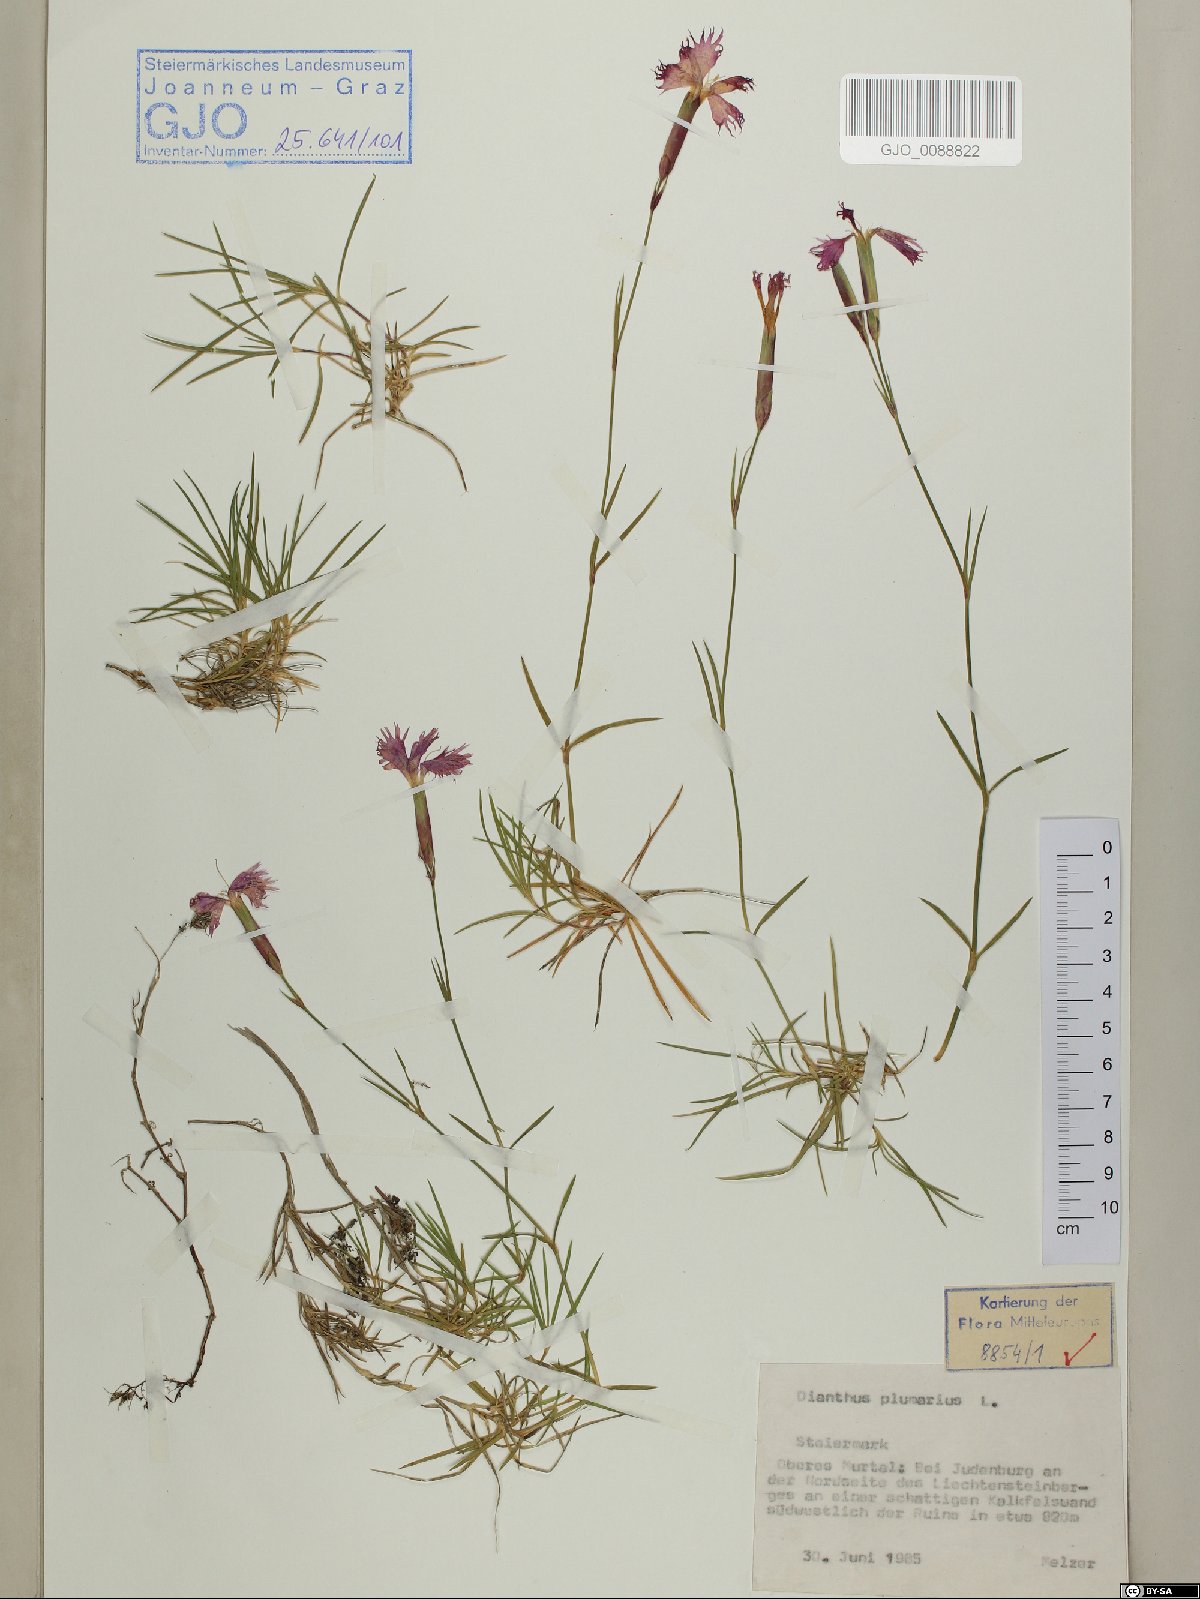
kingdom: Plantae
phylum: Tracheophyta
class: Magnoliopsida
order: Caryophyllales
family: Caryophyllaceae
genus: Dianthus
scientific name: Dianthus plumarius
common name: Pink
